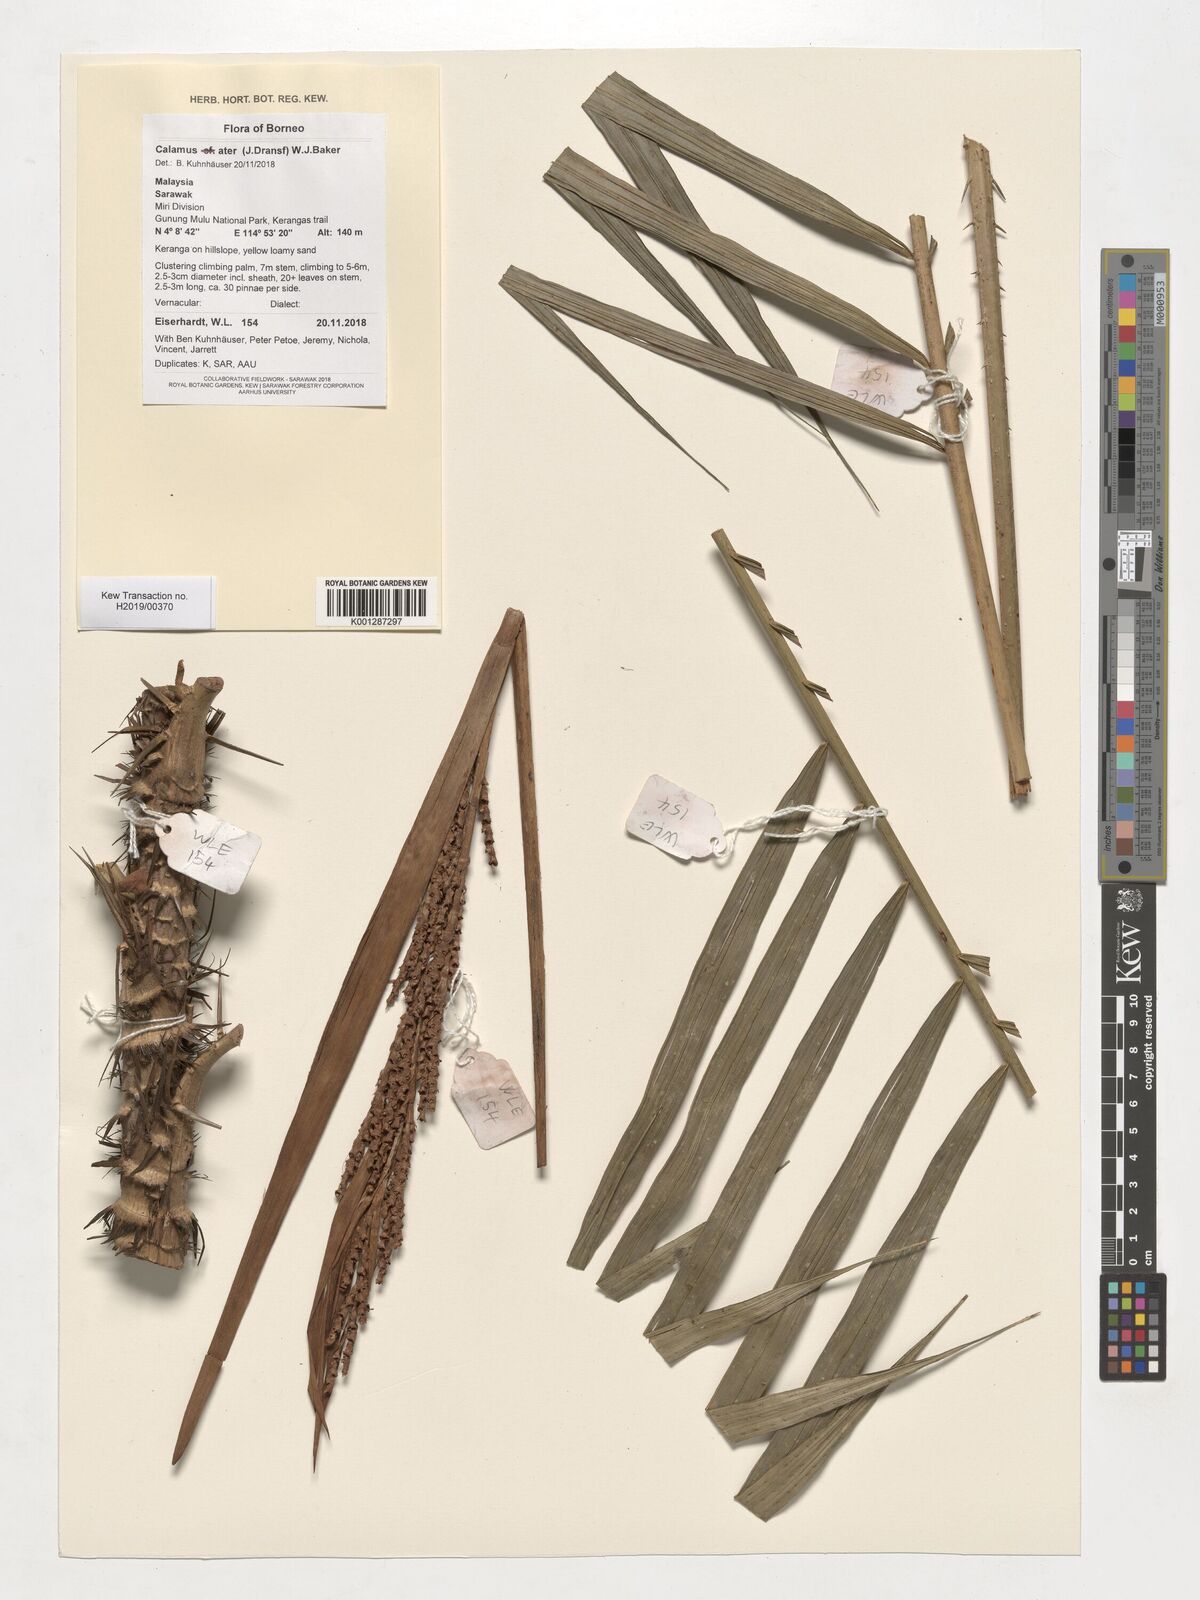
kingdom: Plantae
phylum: Tracheophyta
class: Liliopsida
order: Arecales
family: Arecaceae
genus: Calamus
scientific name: Calamus ater
